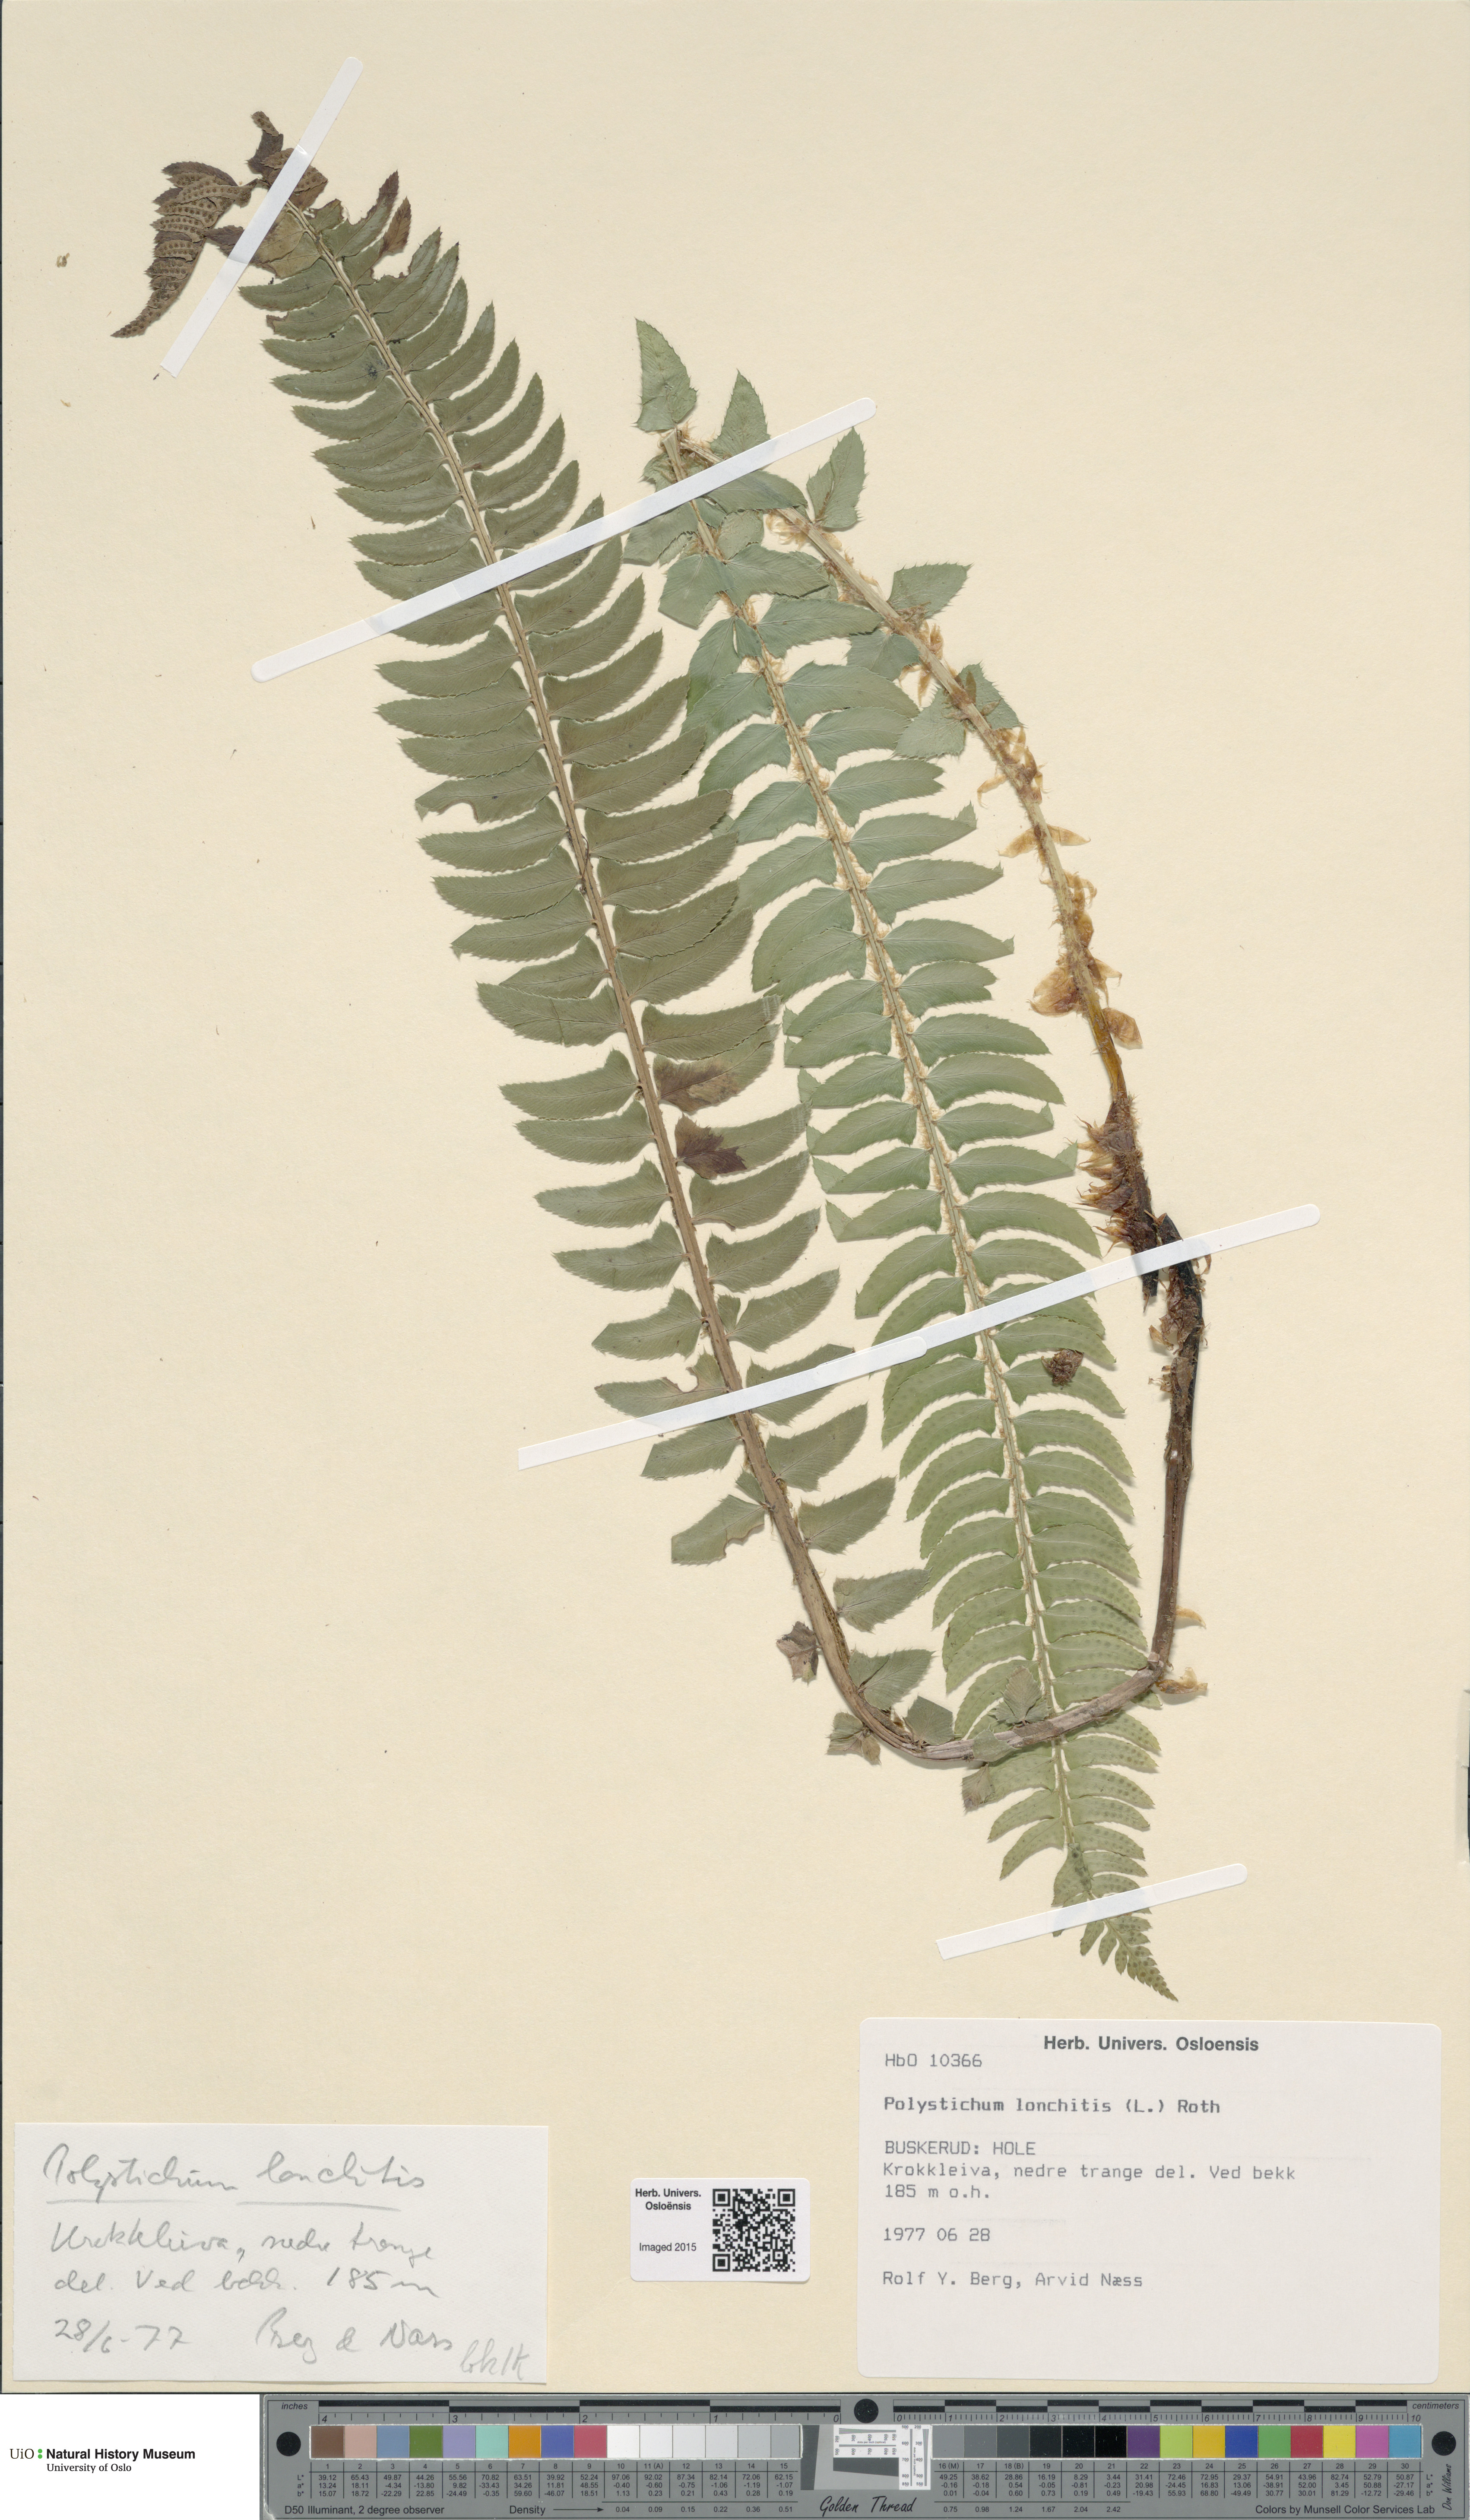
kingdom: Plantae
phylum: Tracheophyta
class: Polypodiopsida
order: Polypodiales
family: Dryopteridaceae
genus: Polystichum
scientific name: Polystichum lonchitis
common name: Holly fern
